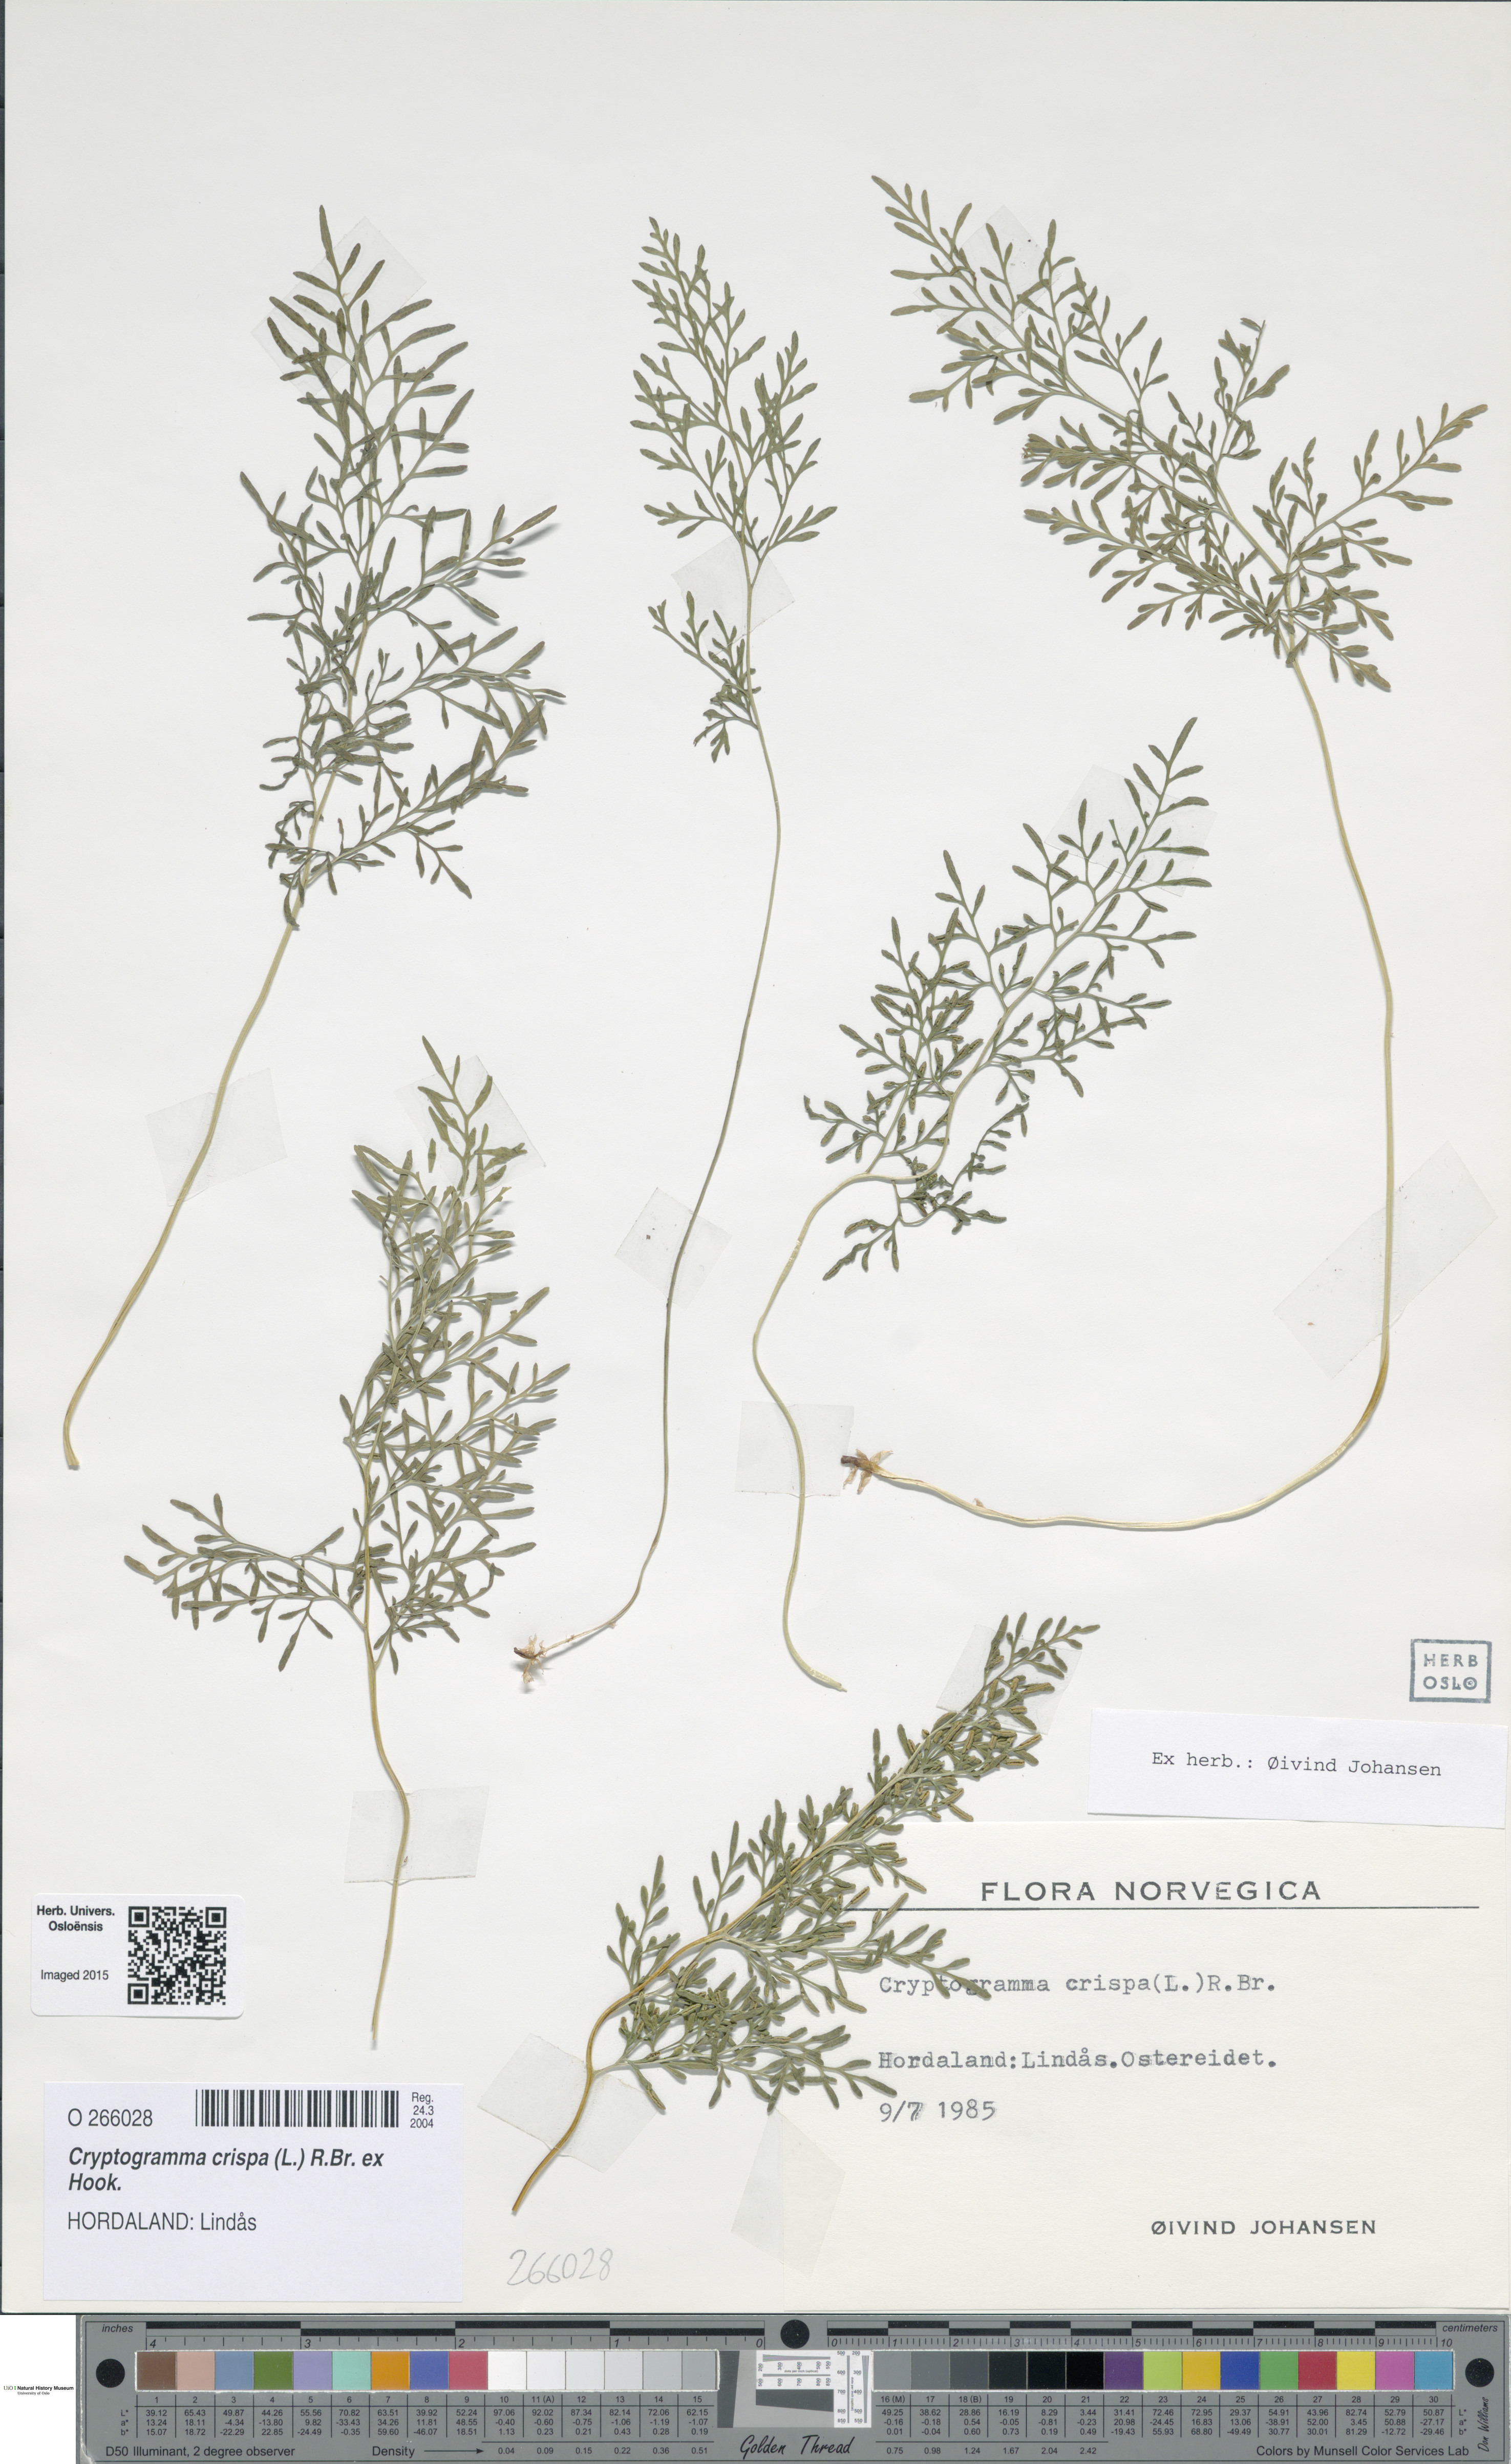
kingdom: Plantae
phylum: Tracheophyta
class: Polypodiopsida
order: Polypodiales
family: Pteridaceae
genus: Cryptogramma
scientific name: Cryptogramma crispa
